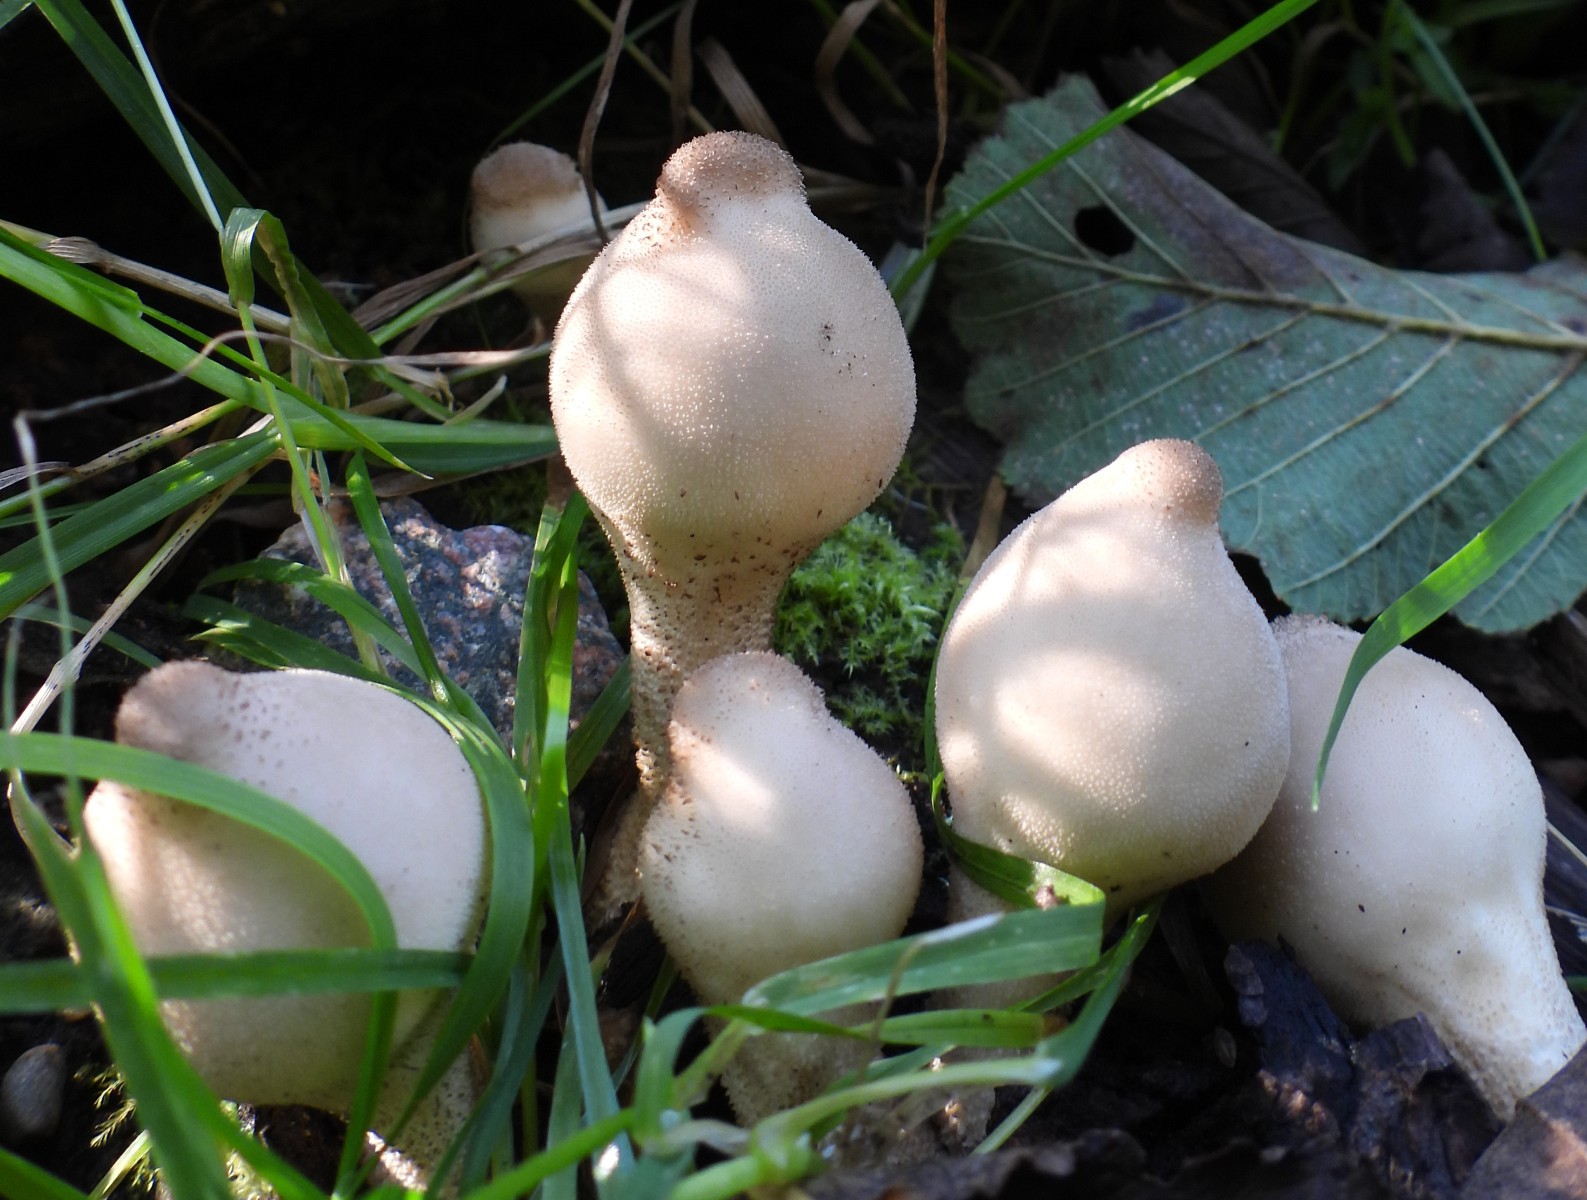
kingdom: Fungi
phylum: Basidiomycota
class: Agaricomycetes
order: Agaricales
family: Lycoperdaceae
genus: Apioperdon
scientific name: Apioperdon pyriforme
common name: pære-støvbold
